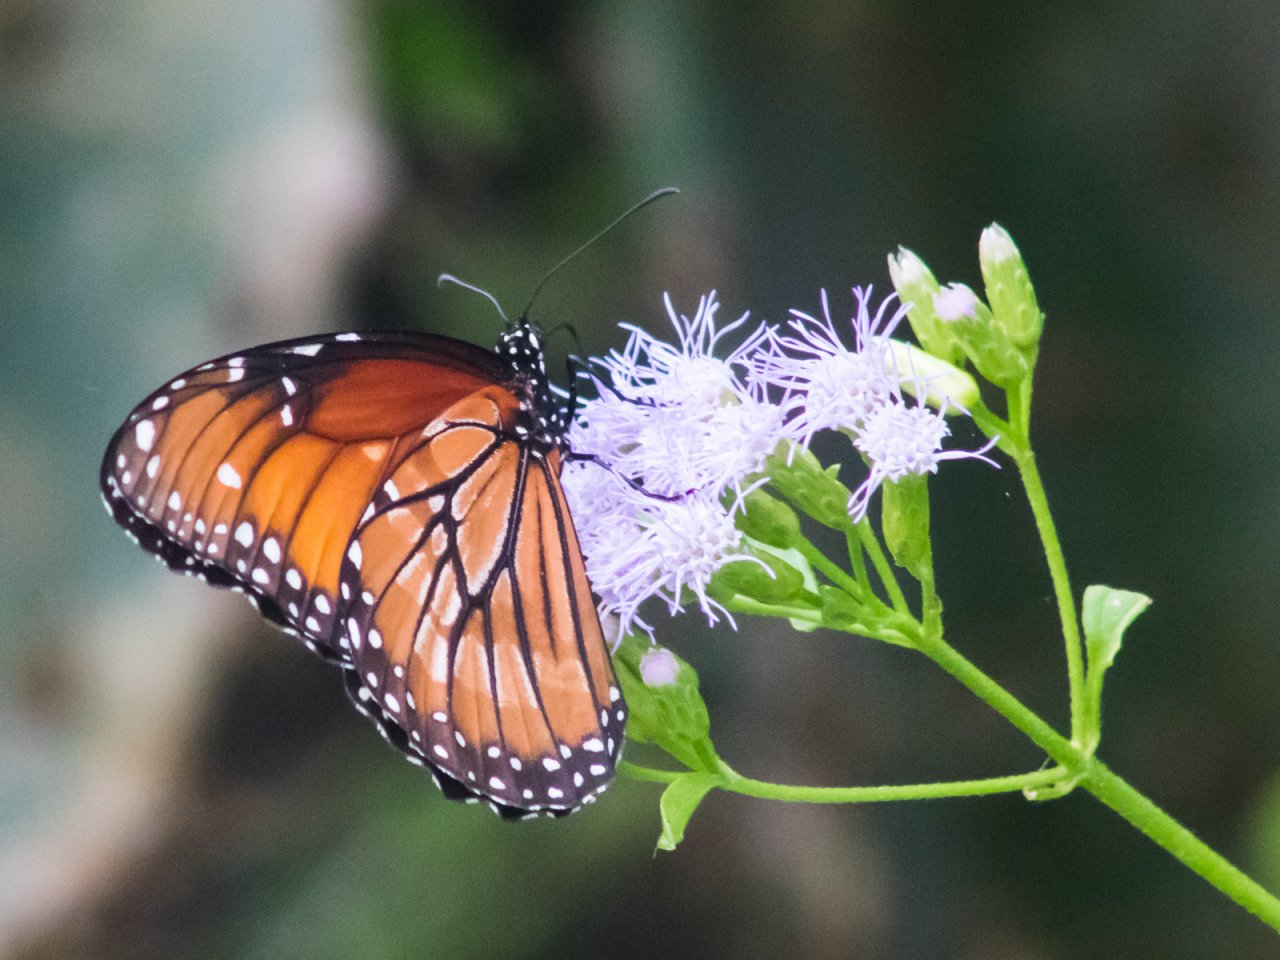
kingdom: Animalia
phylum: Arthropoda
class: Insecta
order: Lepidoptera
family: Nymphalidae
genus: Danaus
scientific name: Danaus eresimus
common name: Soldier
